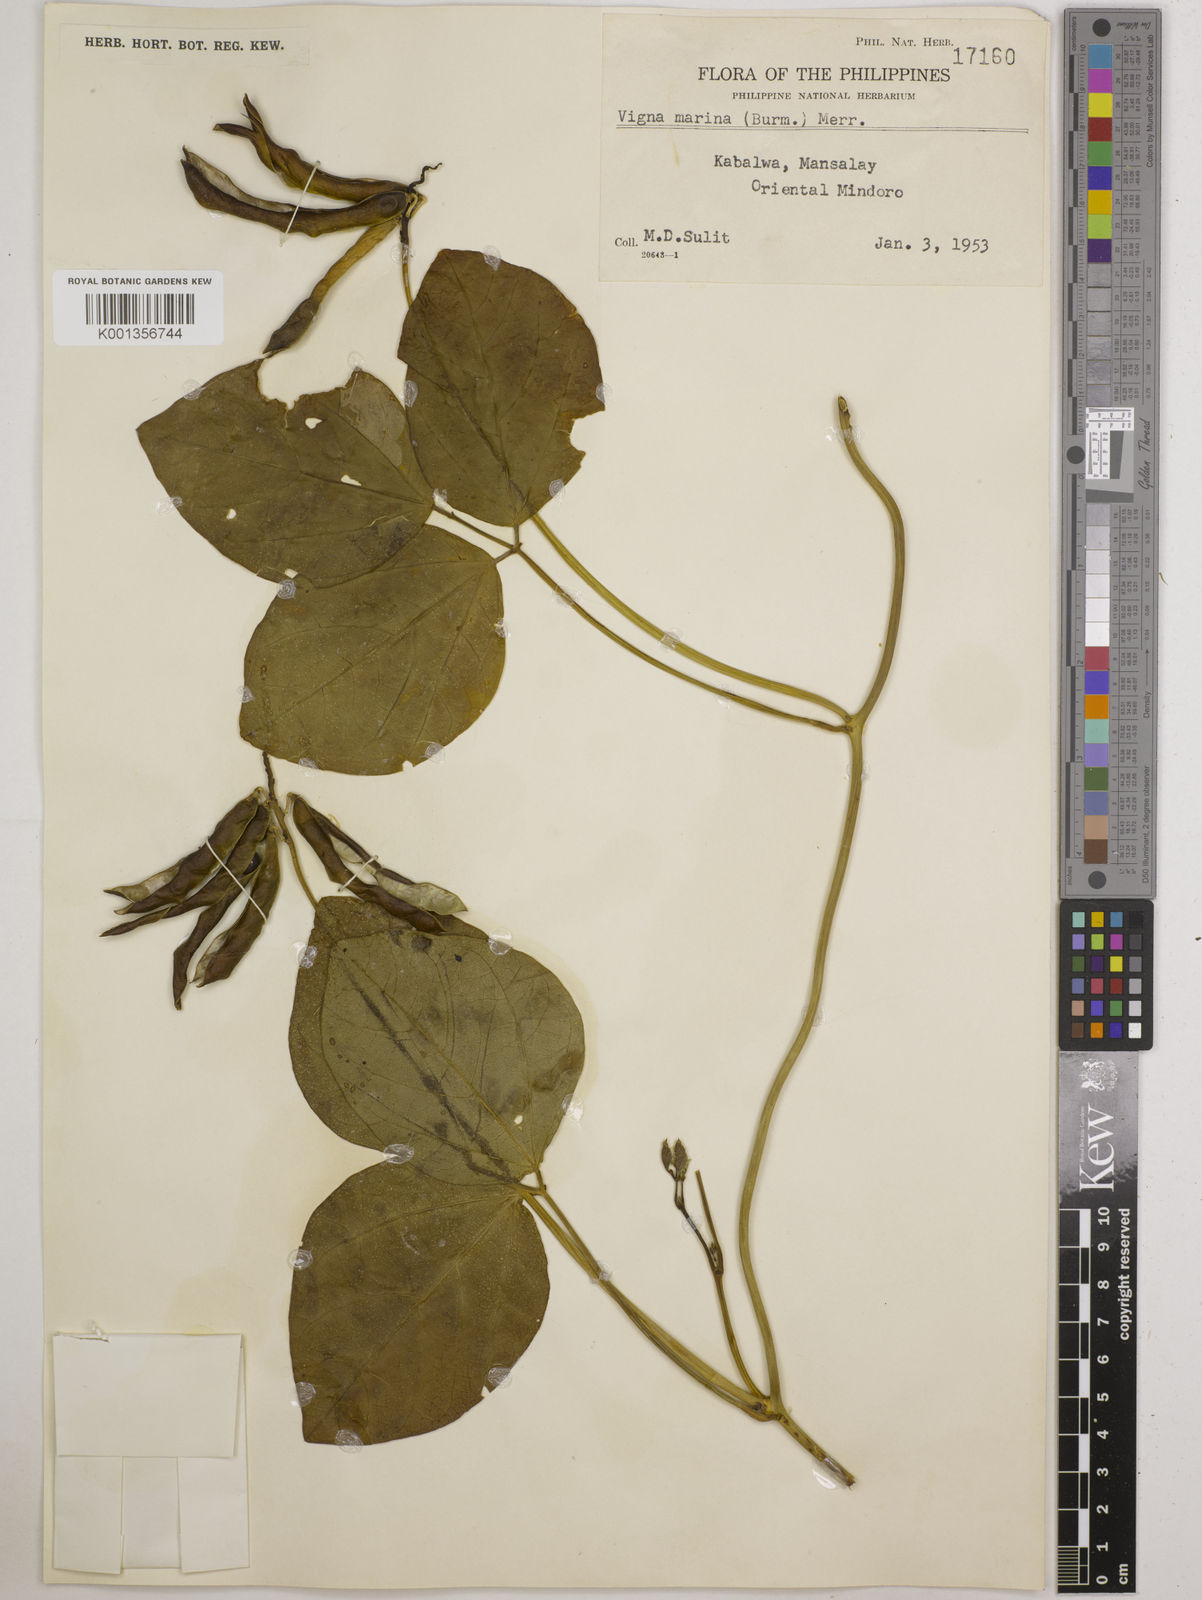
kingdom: Plantae
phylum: Tracheophyta
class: Magnoliopsida
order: Fabales
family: Fabaceae
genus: Vigna
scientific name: Vigna marina
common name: Dune-bean
